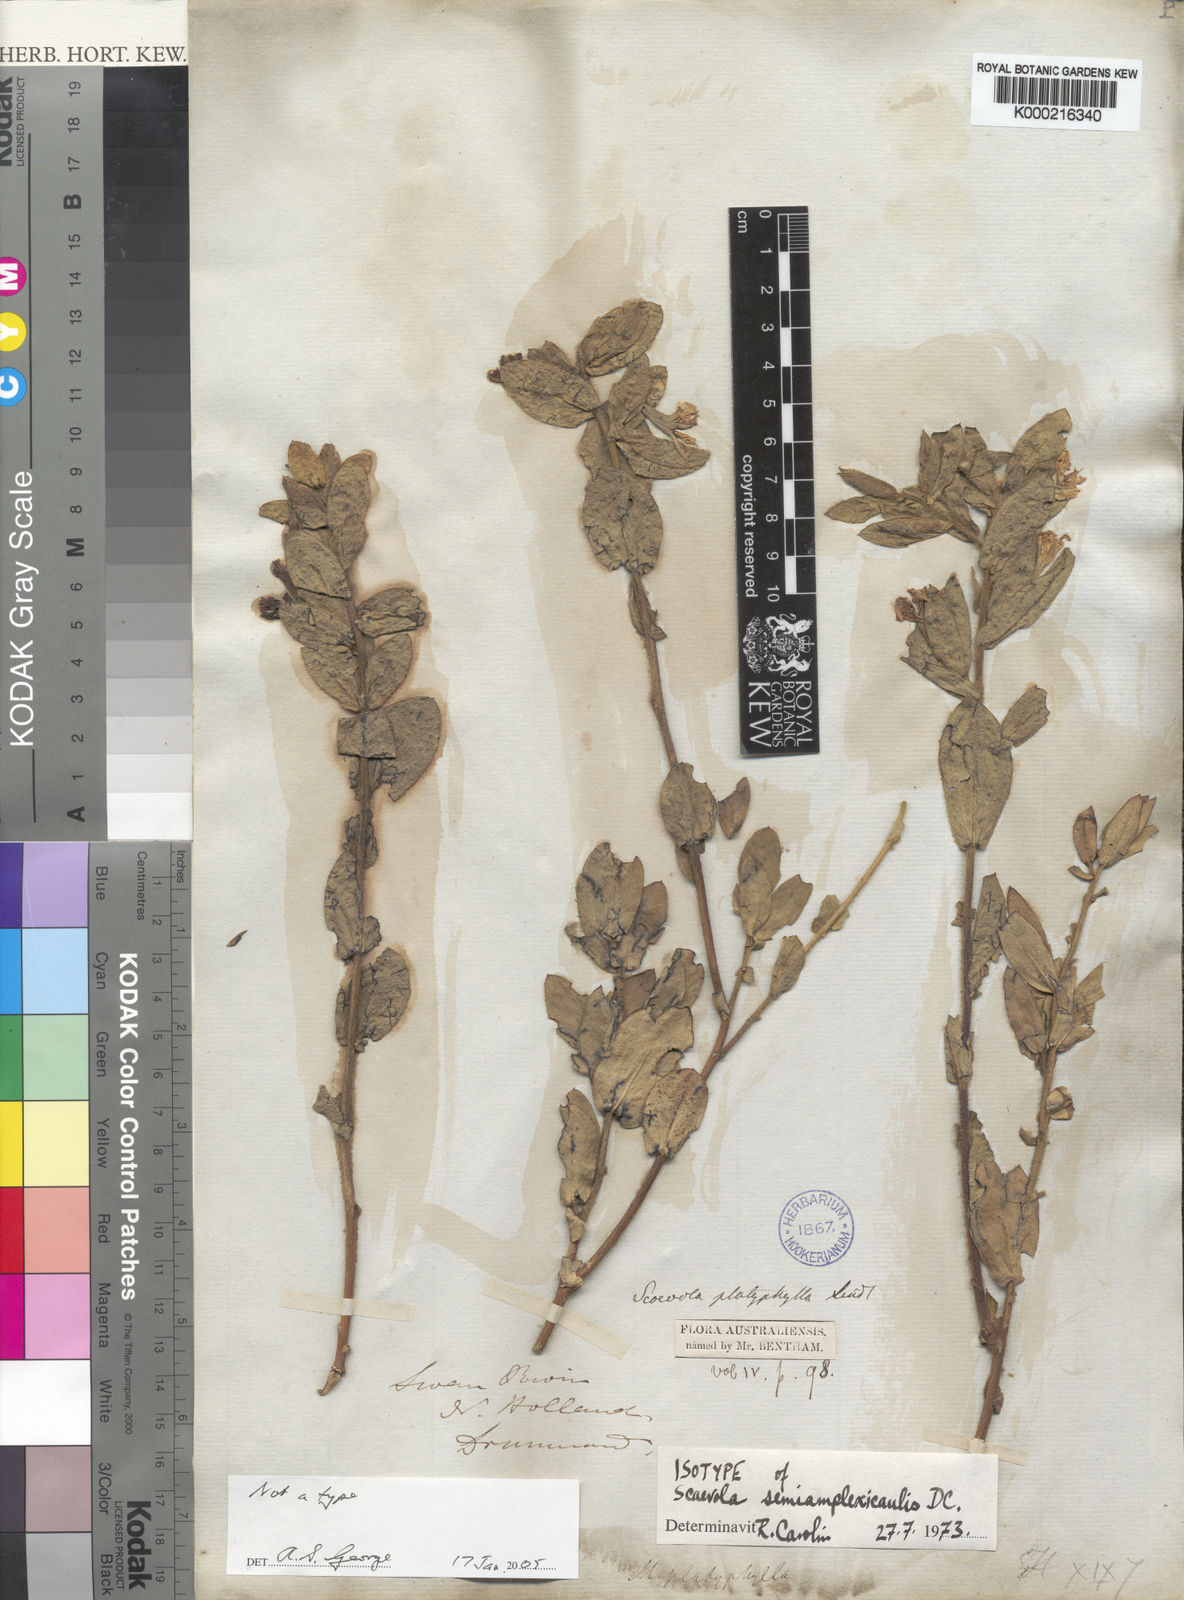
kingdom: Plantae
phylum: Tracheophyta
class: Magnoliopsida
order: Asterales
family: Goodeniaceae
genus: Scaevola
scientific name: Scaevola platyphylla
